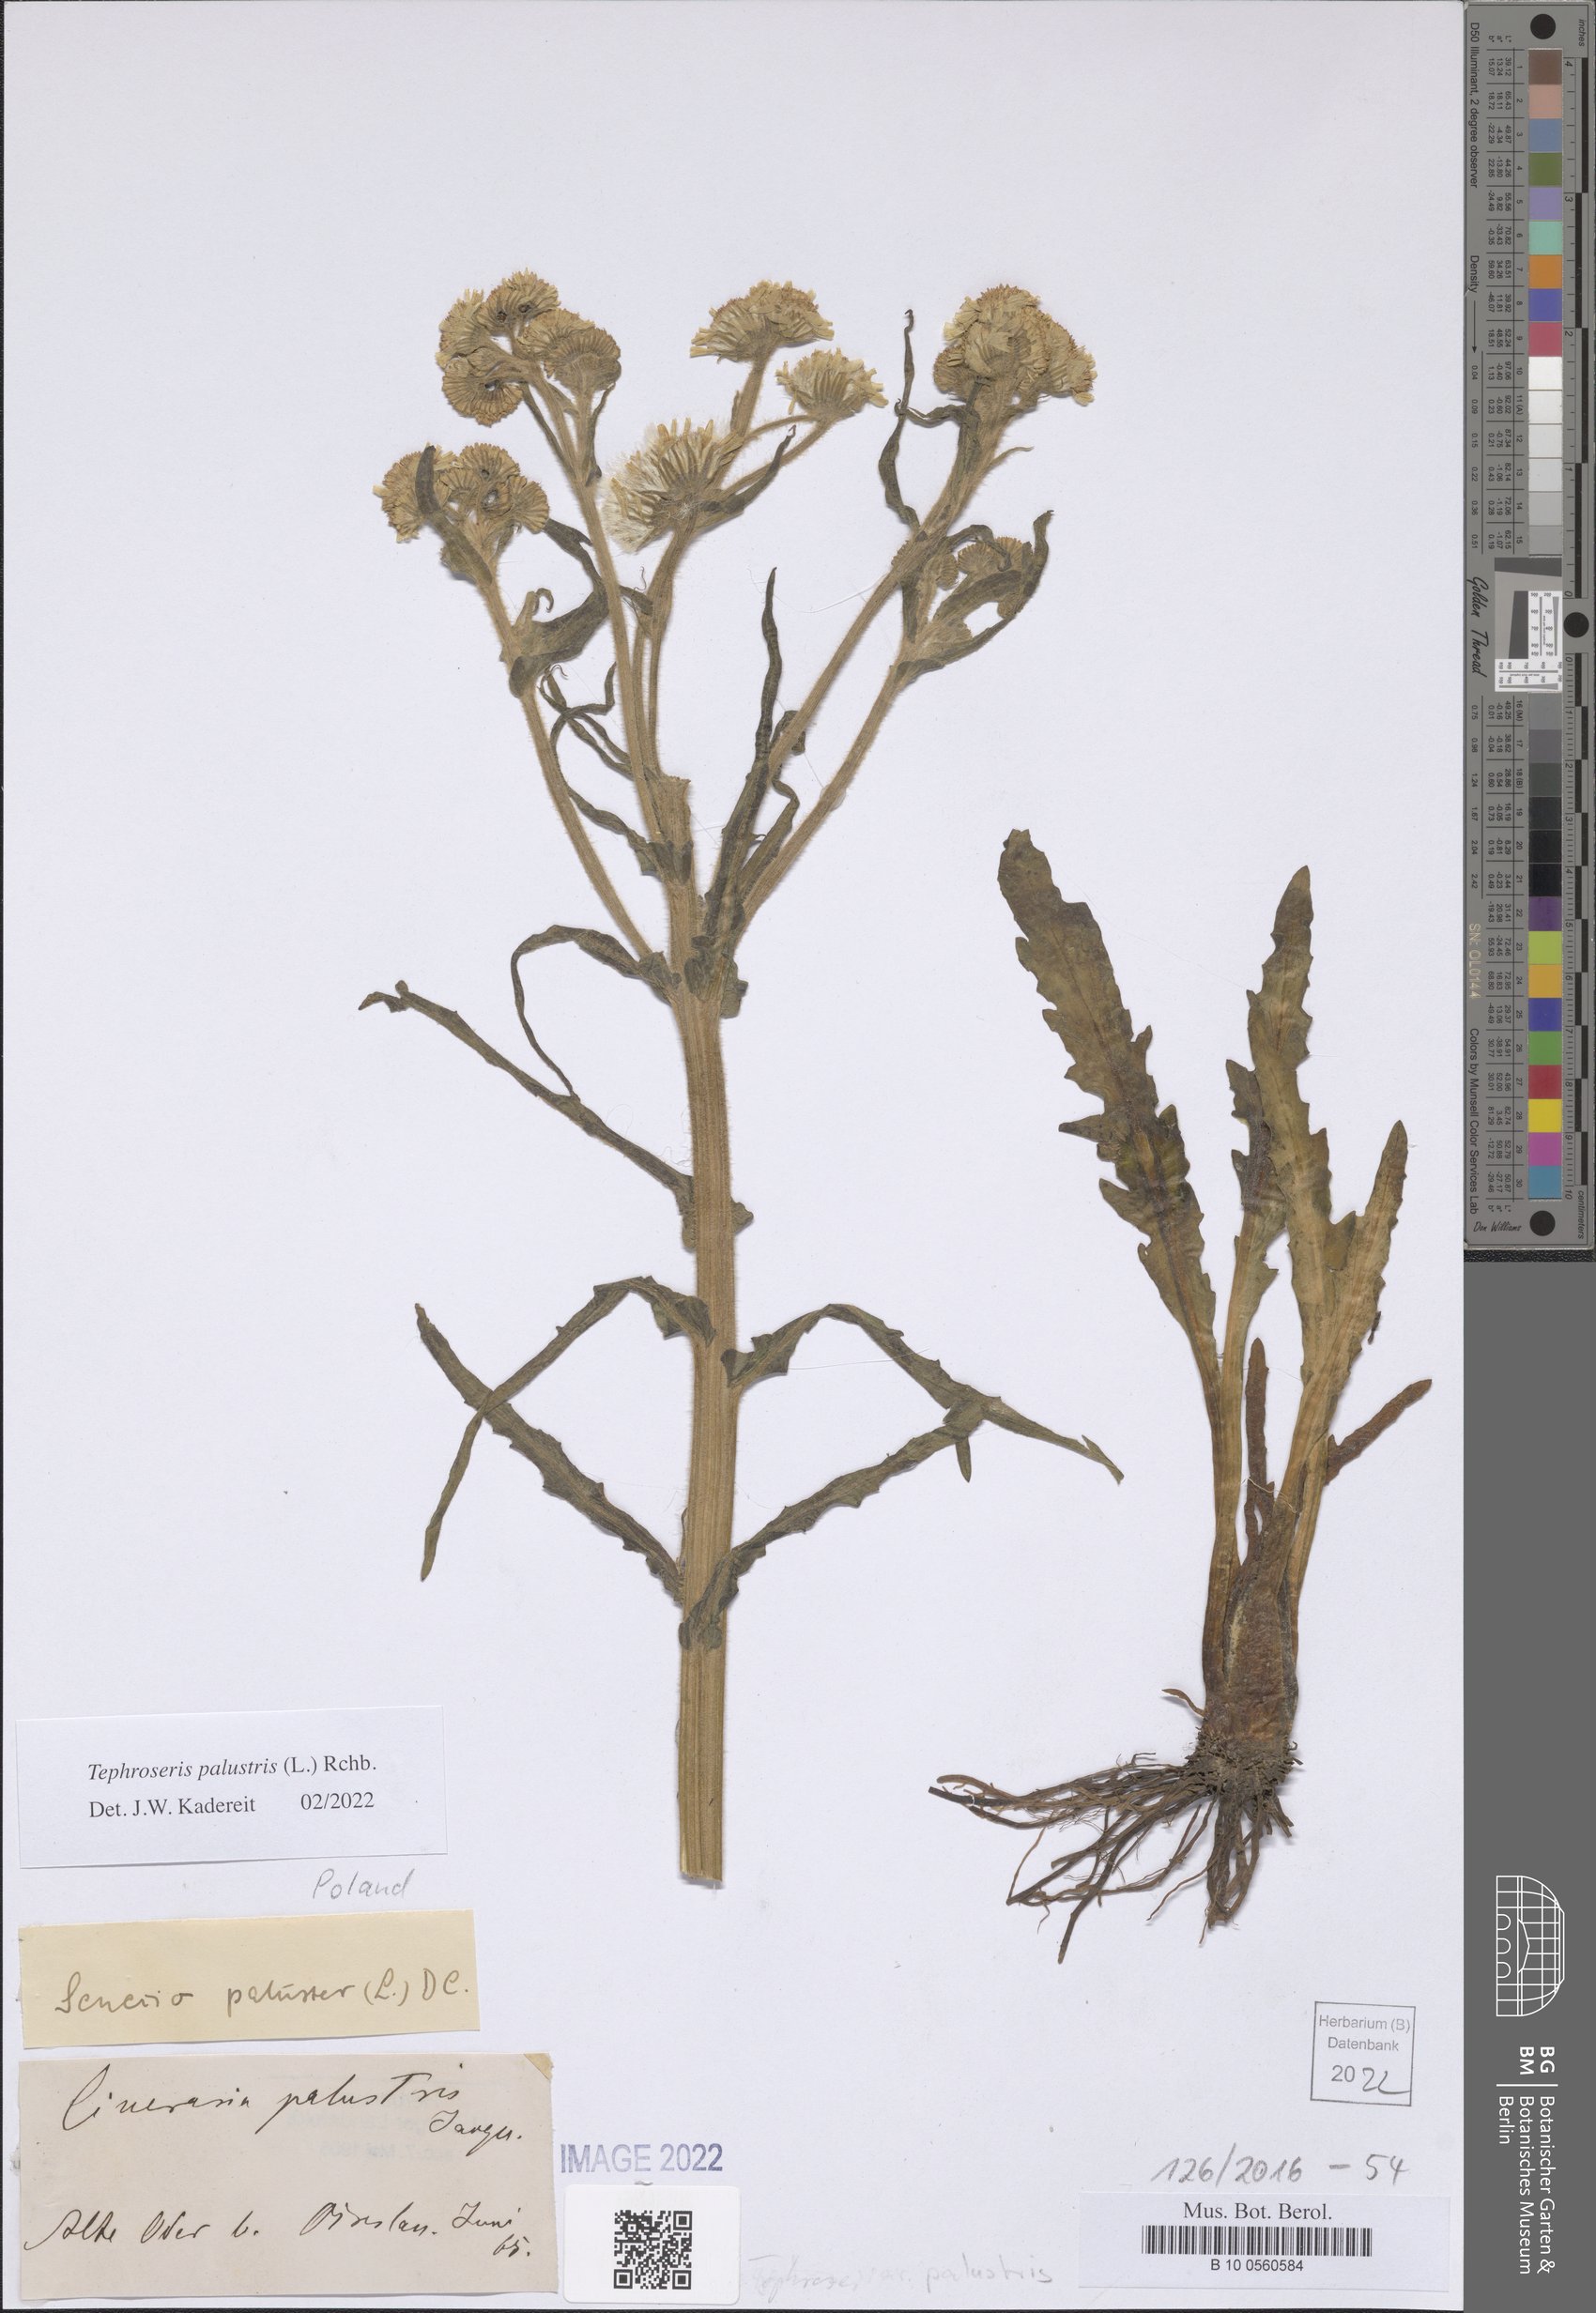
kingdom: Plantae
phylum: Tracheophyta
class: Magnoliopsida
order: Asterales
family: Asteraceae
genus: Tephroseris
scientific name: Tephroseris palustris
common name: Marsh fleawort
